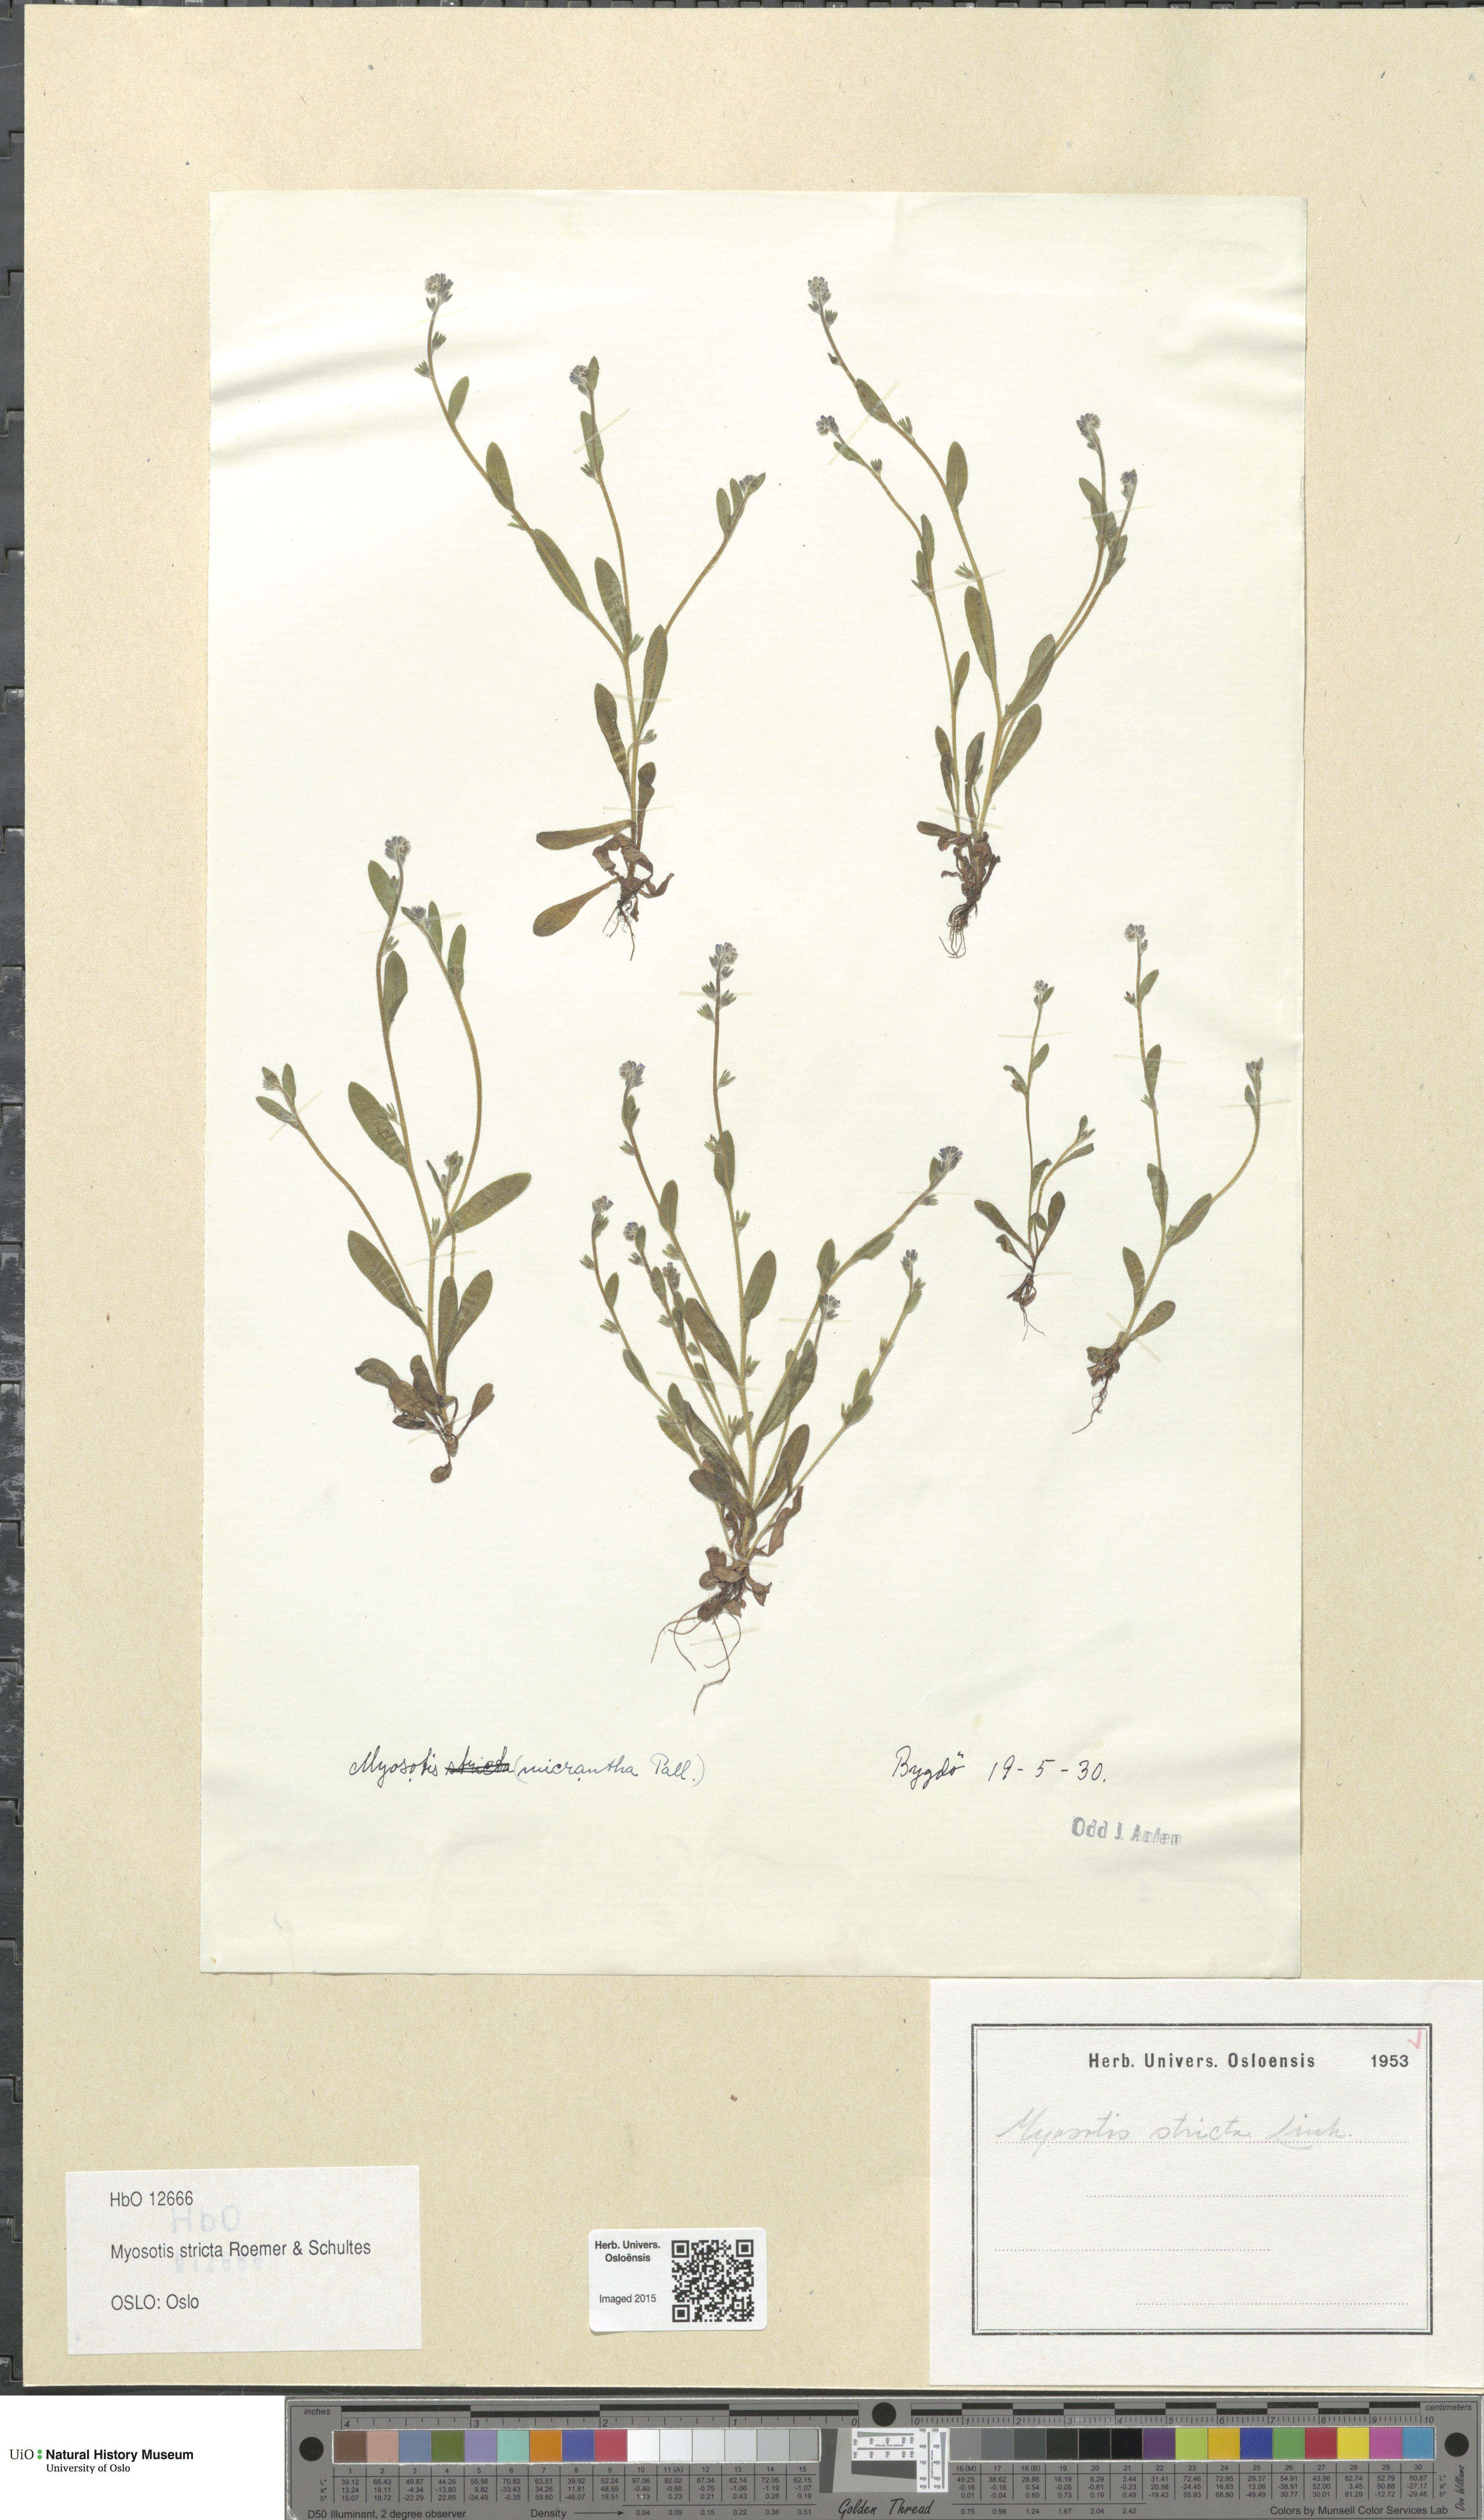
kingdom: Plantae
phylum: Tracheophyta
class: Magnoliopsida
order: Boraginales
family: Boraginaceae
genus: Myosotis
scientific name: Myosotis stricta
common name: Strict forget-me-not
